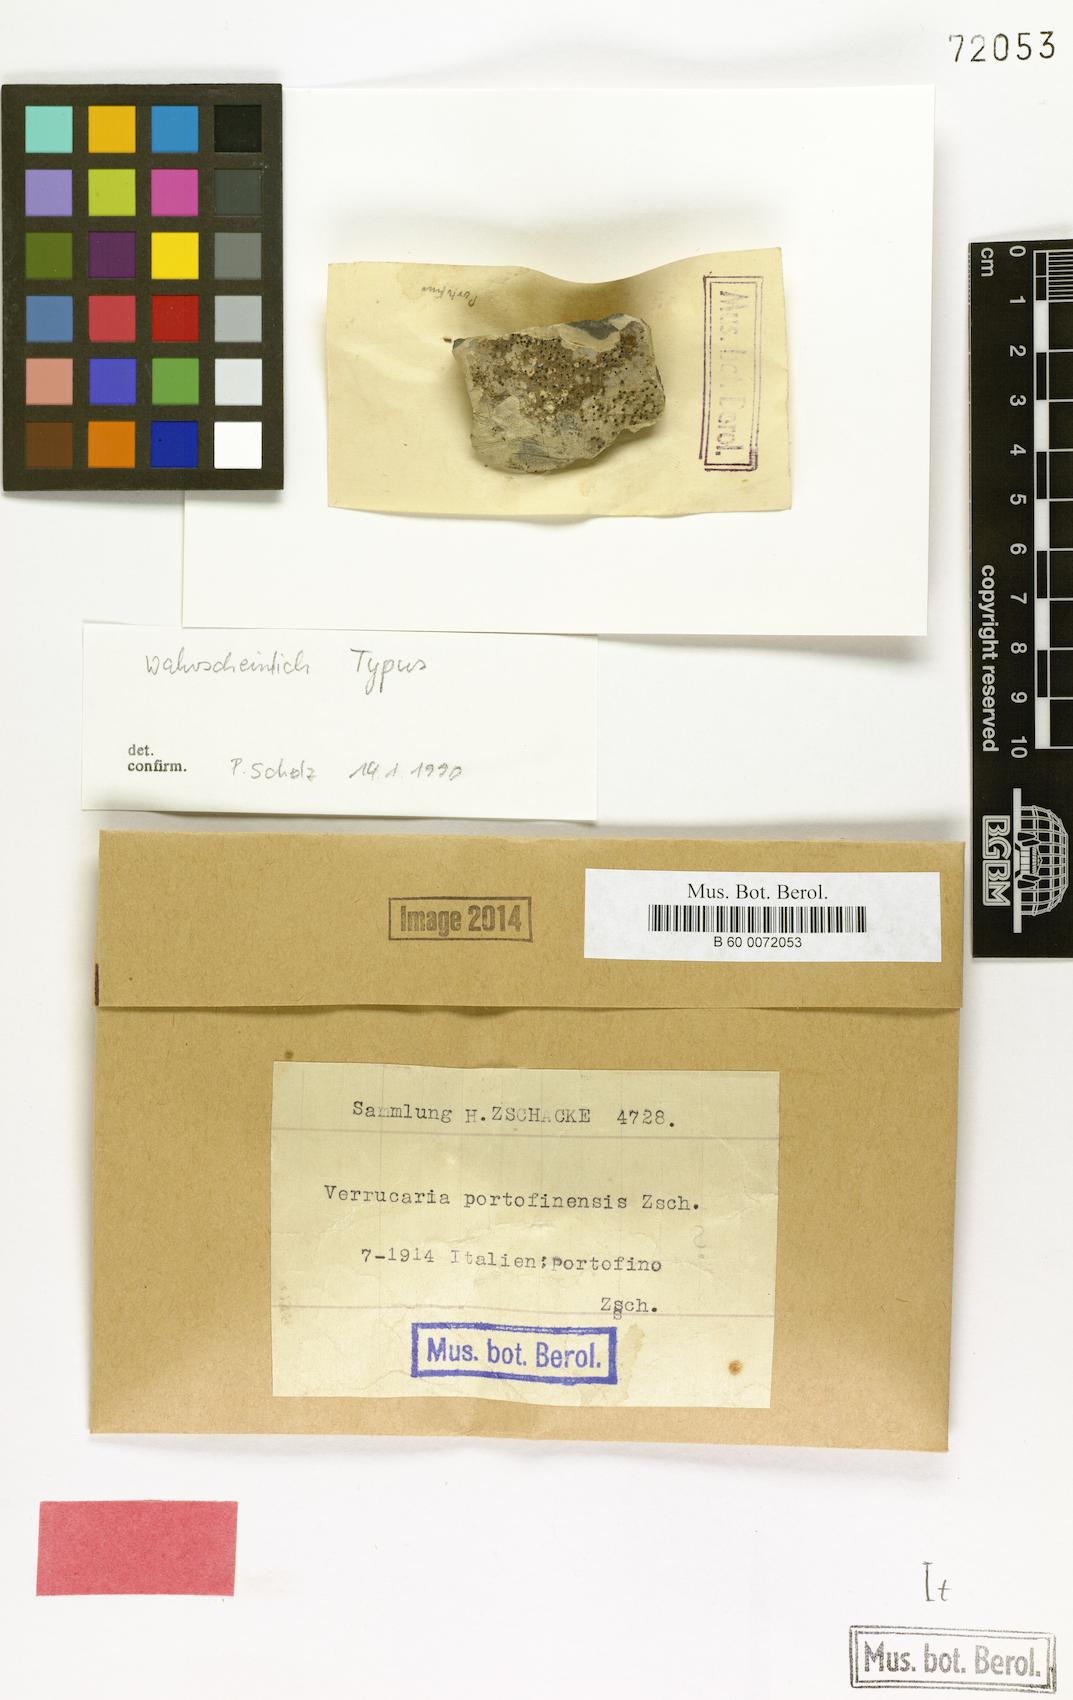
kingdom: Fungi
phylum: Ascomycota
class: Eurotiomycetes
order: Verrucariales
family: Verrucariaceae
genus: Verrucaria
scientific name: Verrucaria
